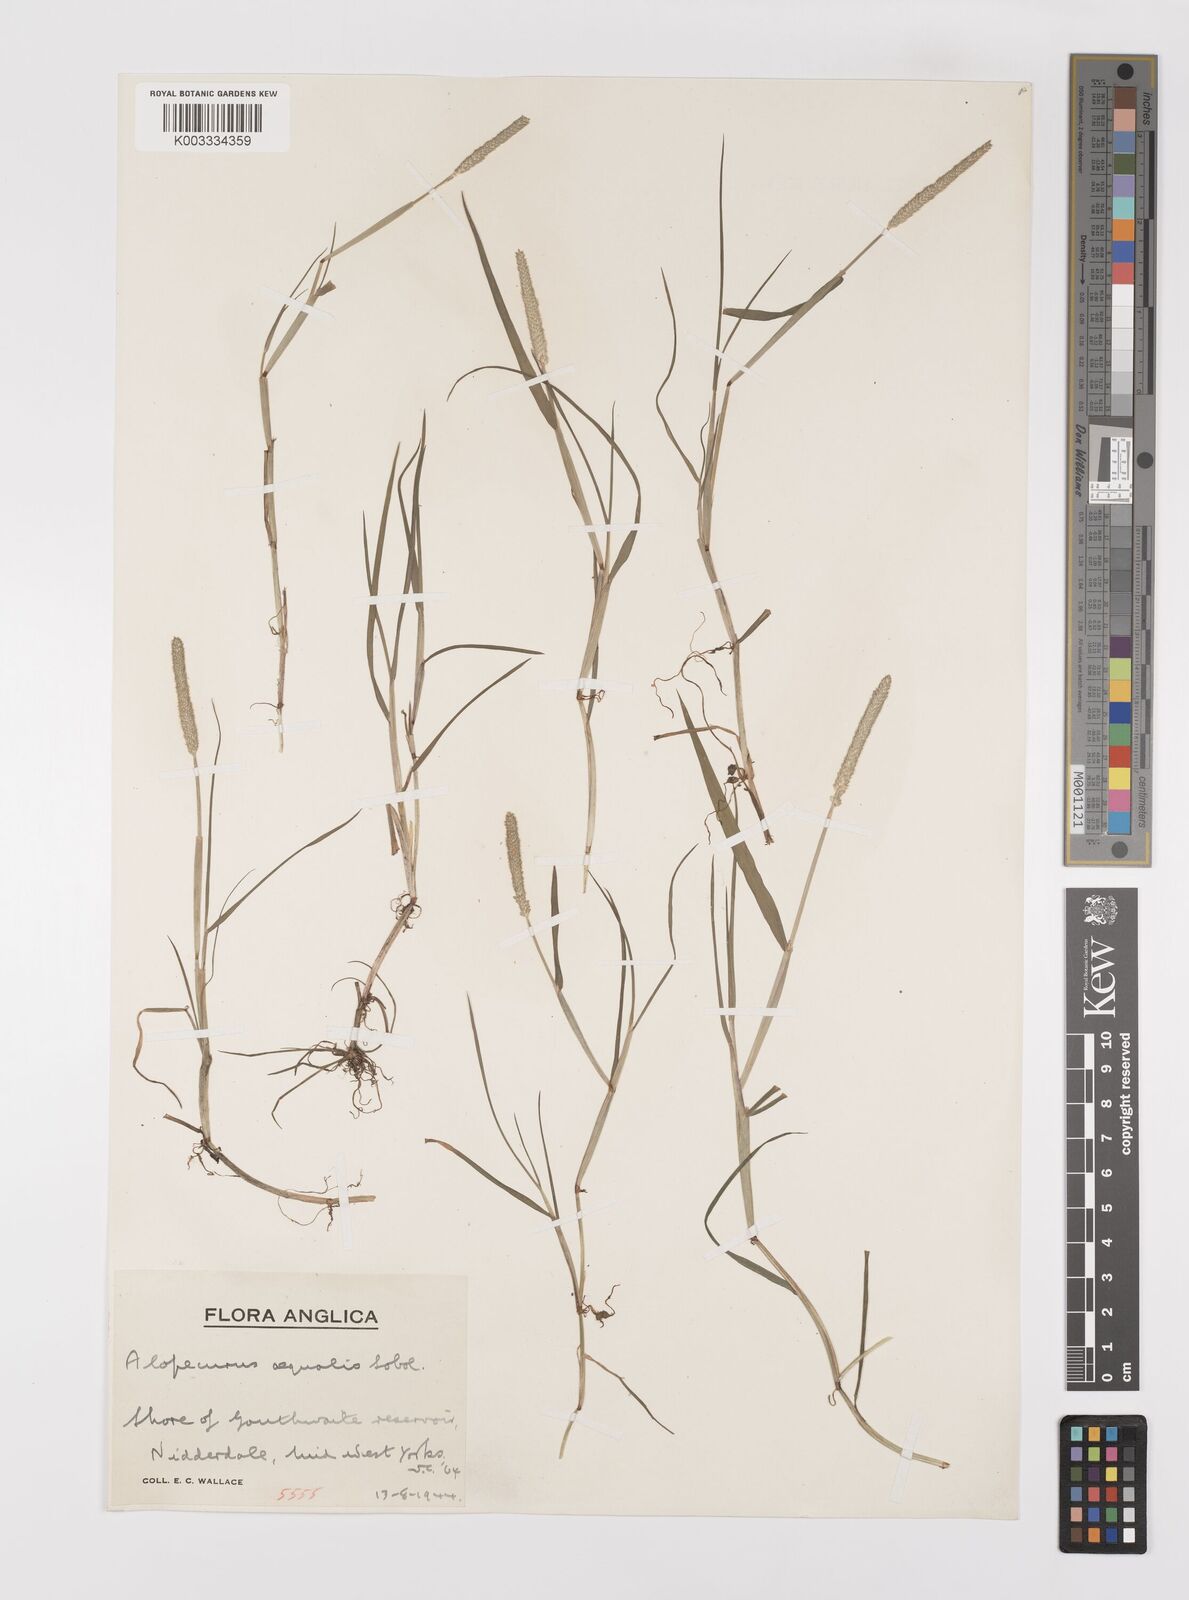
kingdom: Plantae
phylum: Tracheophyta
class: Liliopsida
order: Poales
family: Poaceae
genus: Alopecurus
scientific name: Alopecurus aequalis
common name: Orange foxtail
